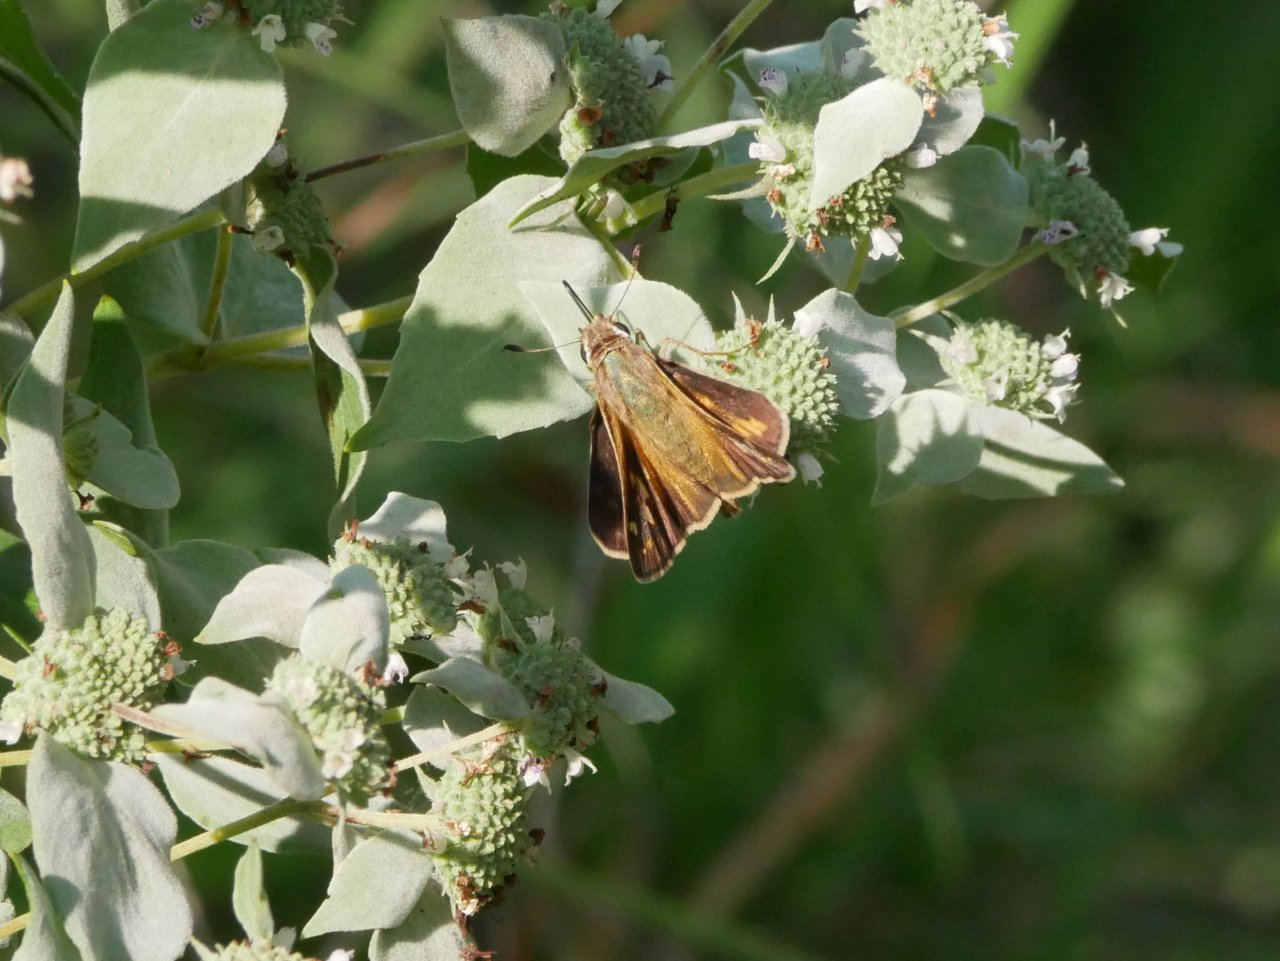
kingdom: Animalia
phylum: Arthropoda
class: Insecta
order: Lepidoptera
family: Hesperiidae
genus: Atalopedes
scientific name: Atalopedes campestris
